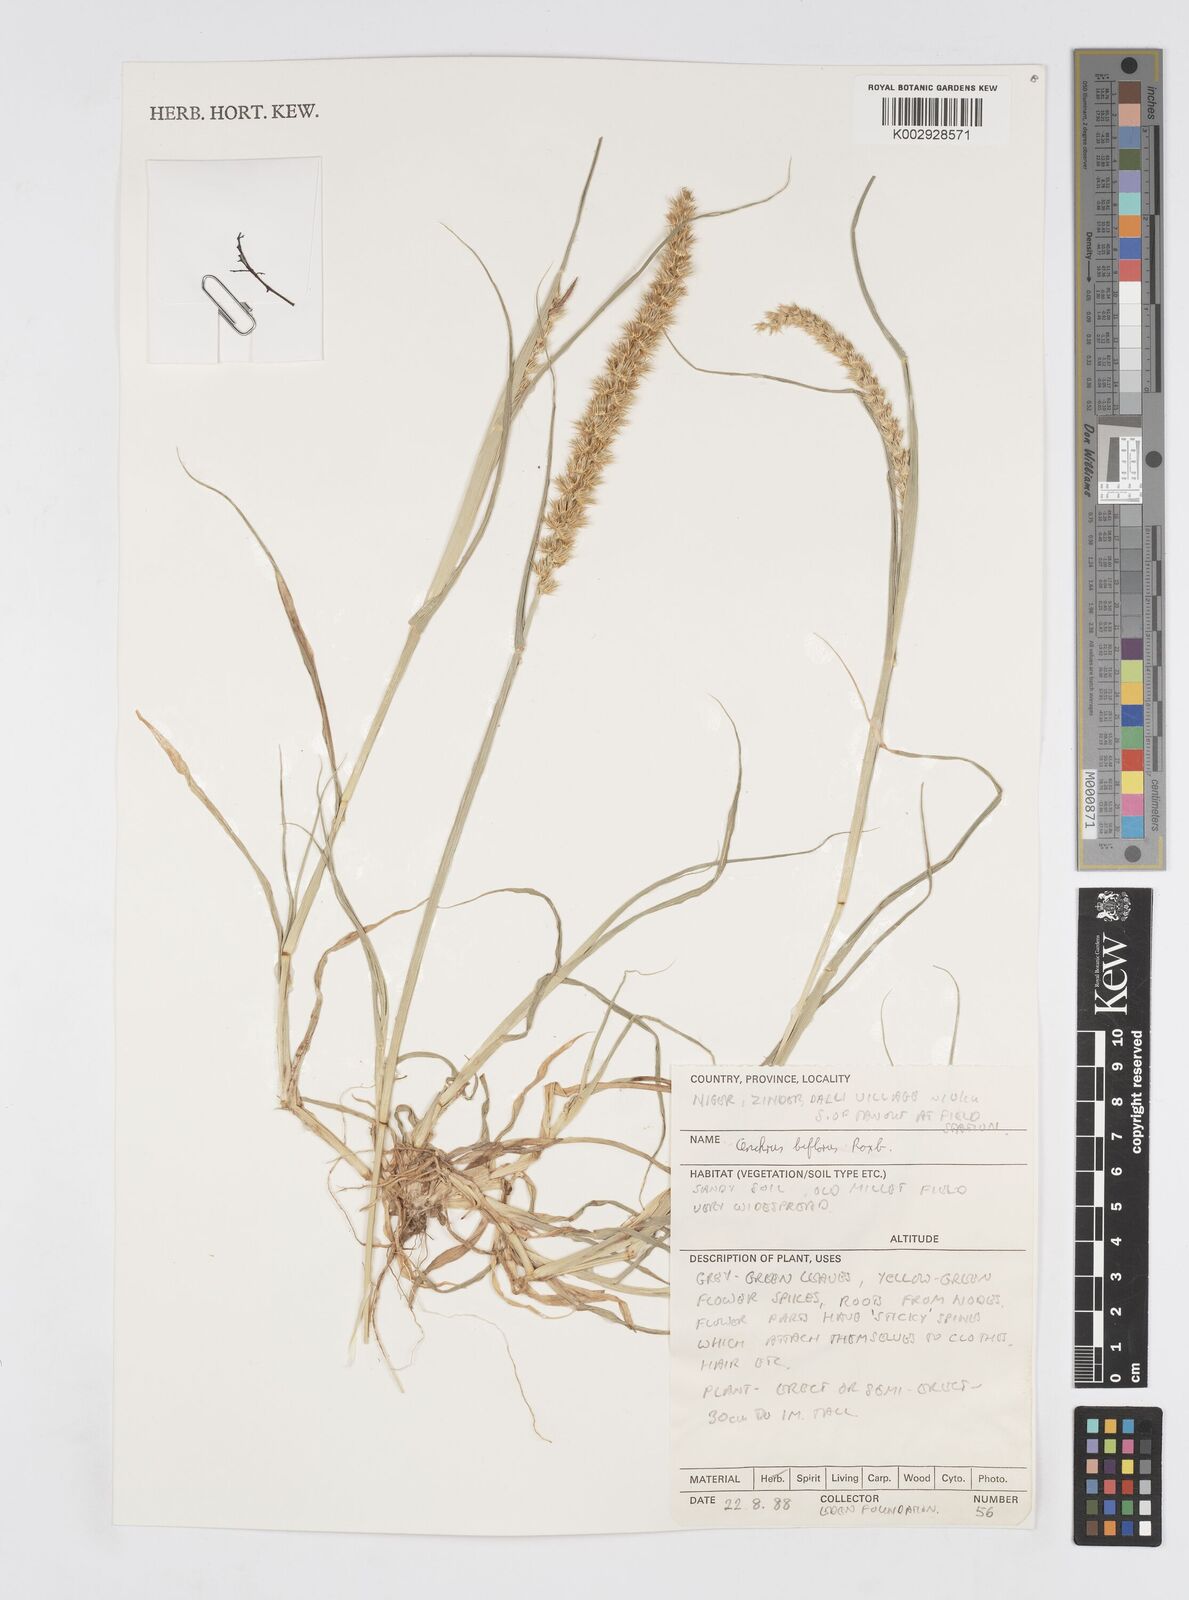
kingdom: Plantae
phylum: Tracheophyta
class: Liliopsida
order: Poales
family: Poaceae
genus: Cenchrus
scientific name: Cenchrus biflorus
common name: Indian sandbur
